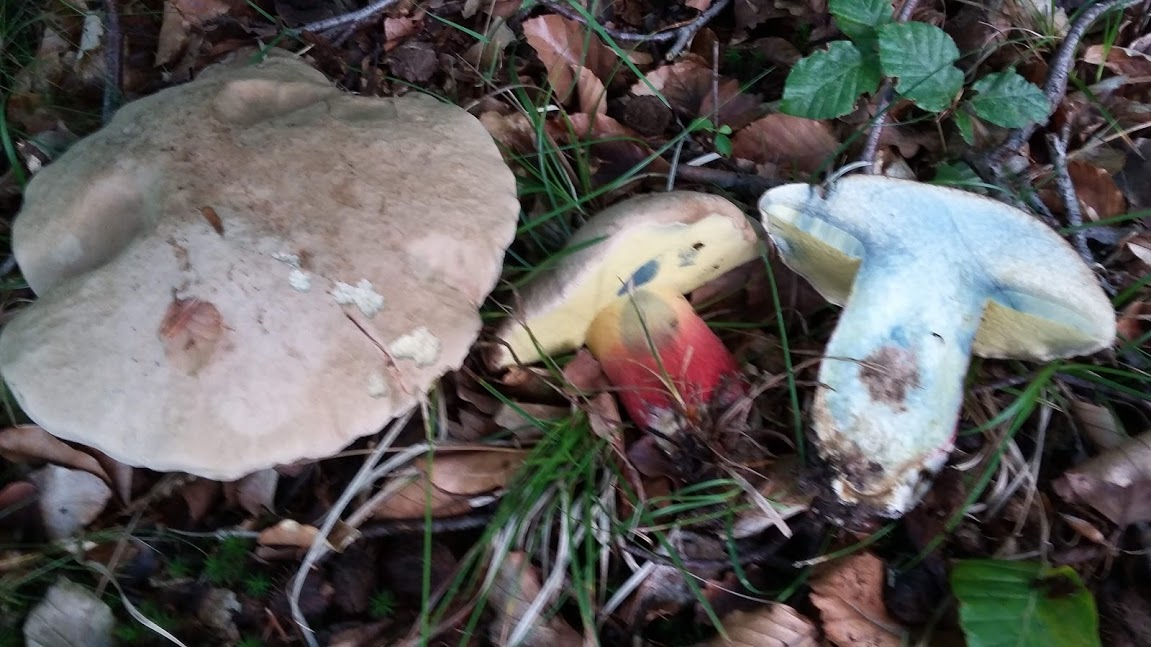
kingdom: Fungi
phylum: Basidiomycota
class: Agaricomycetes
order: Boletales
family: Boletaceae
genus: Caloboletus
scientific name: Caloboletus calopus
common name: skønfodet rørhat
